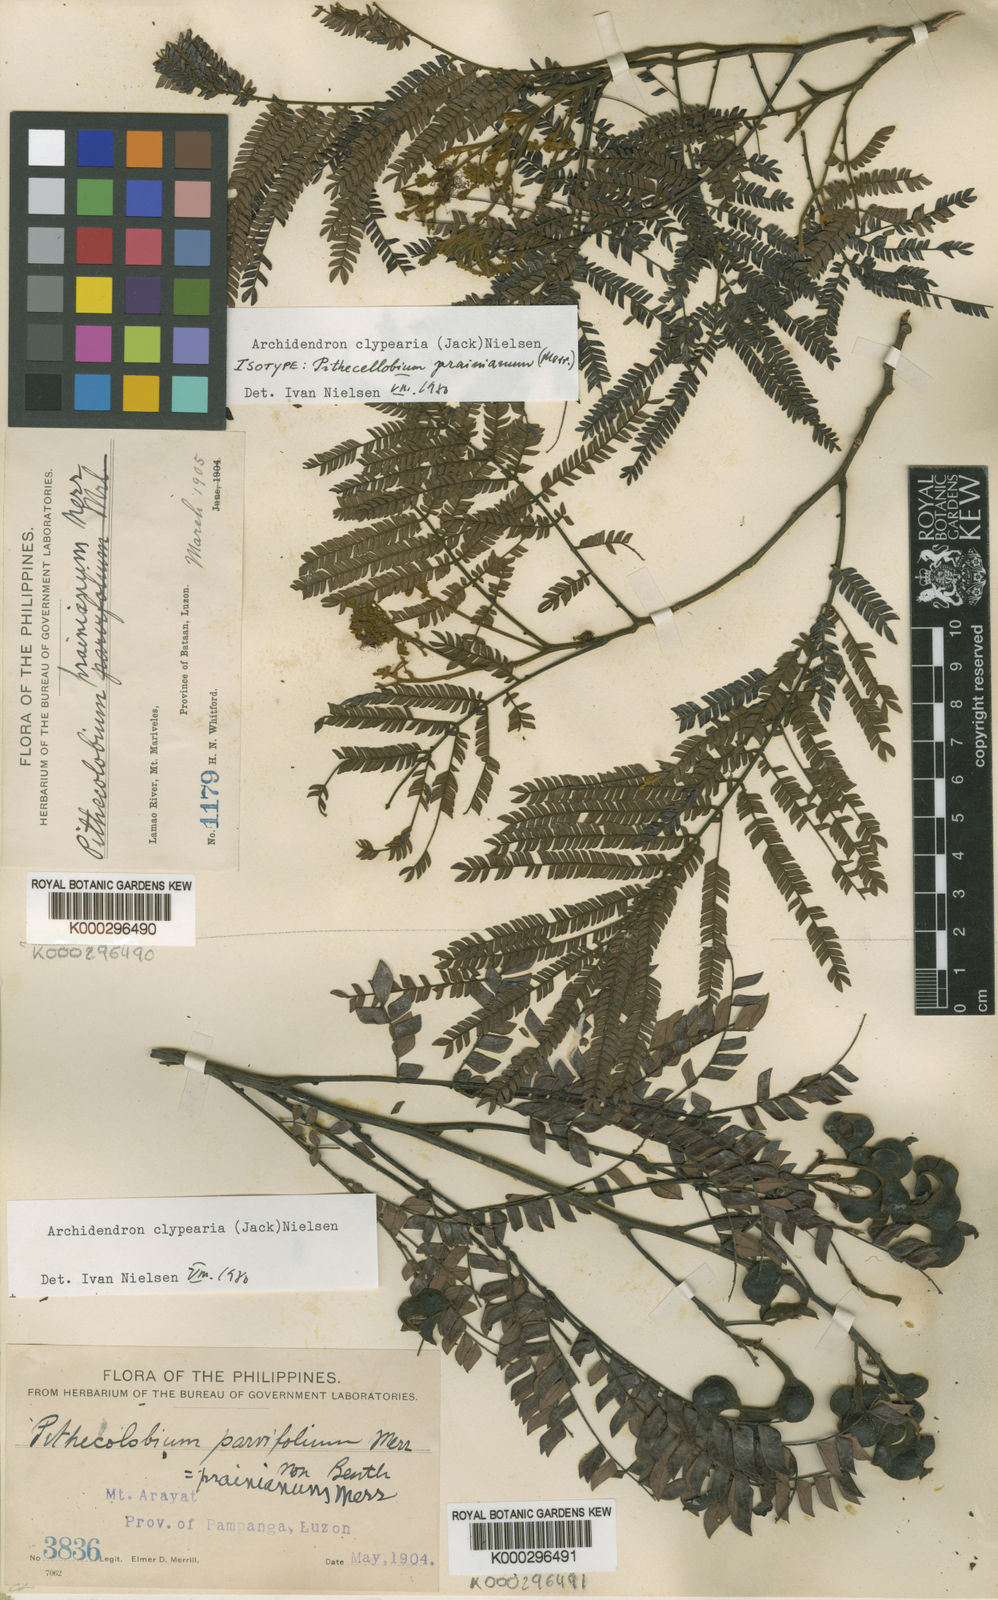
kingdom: Plantae
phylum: Tracheophyta
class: Magnoliopsida
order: Fabales
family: Fabaceae
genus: Archidendron
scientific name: Archidendron clypearia
